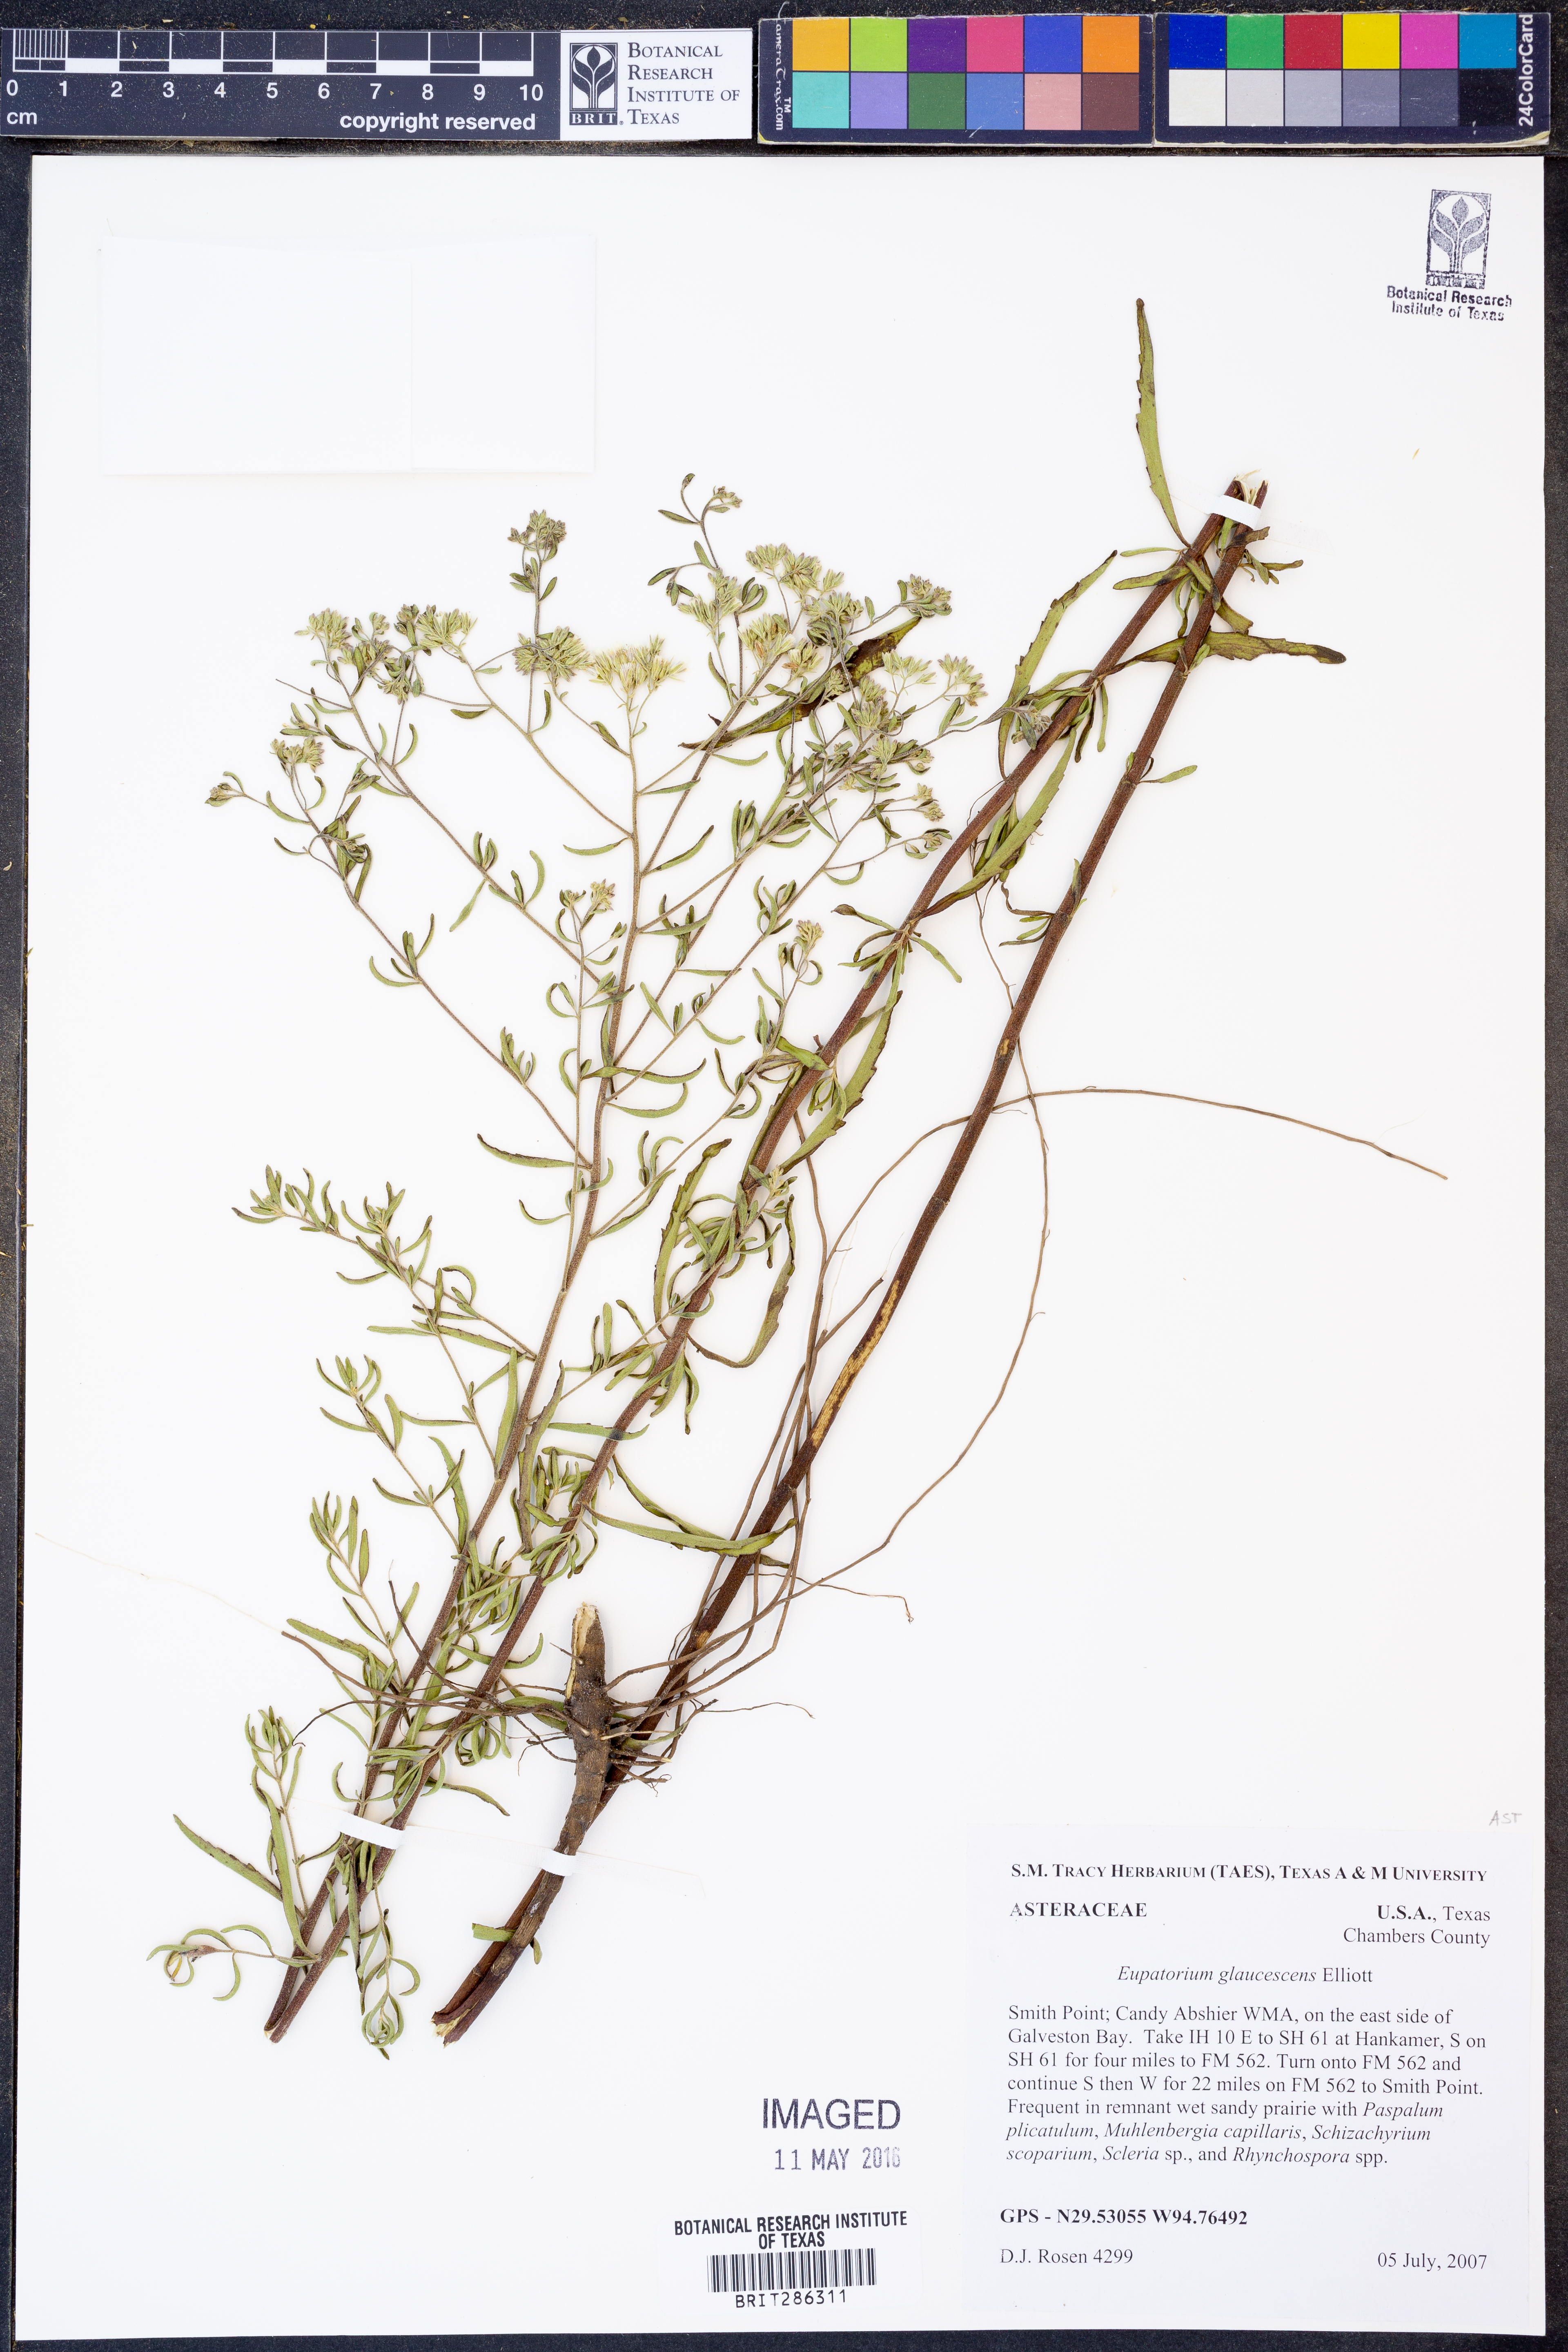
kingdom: Plantae
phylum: Tracheophyta
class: Magnoliopsida
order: Asterales
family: Asteraceae
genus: Eupatorium
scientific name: Eupatorium linearifolium
